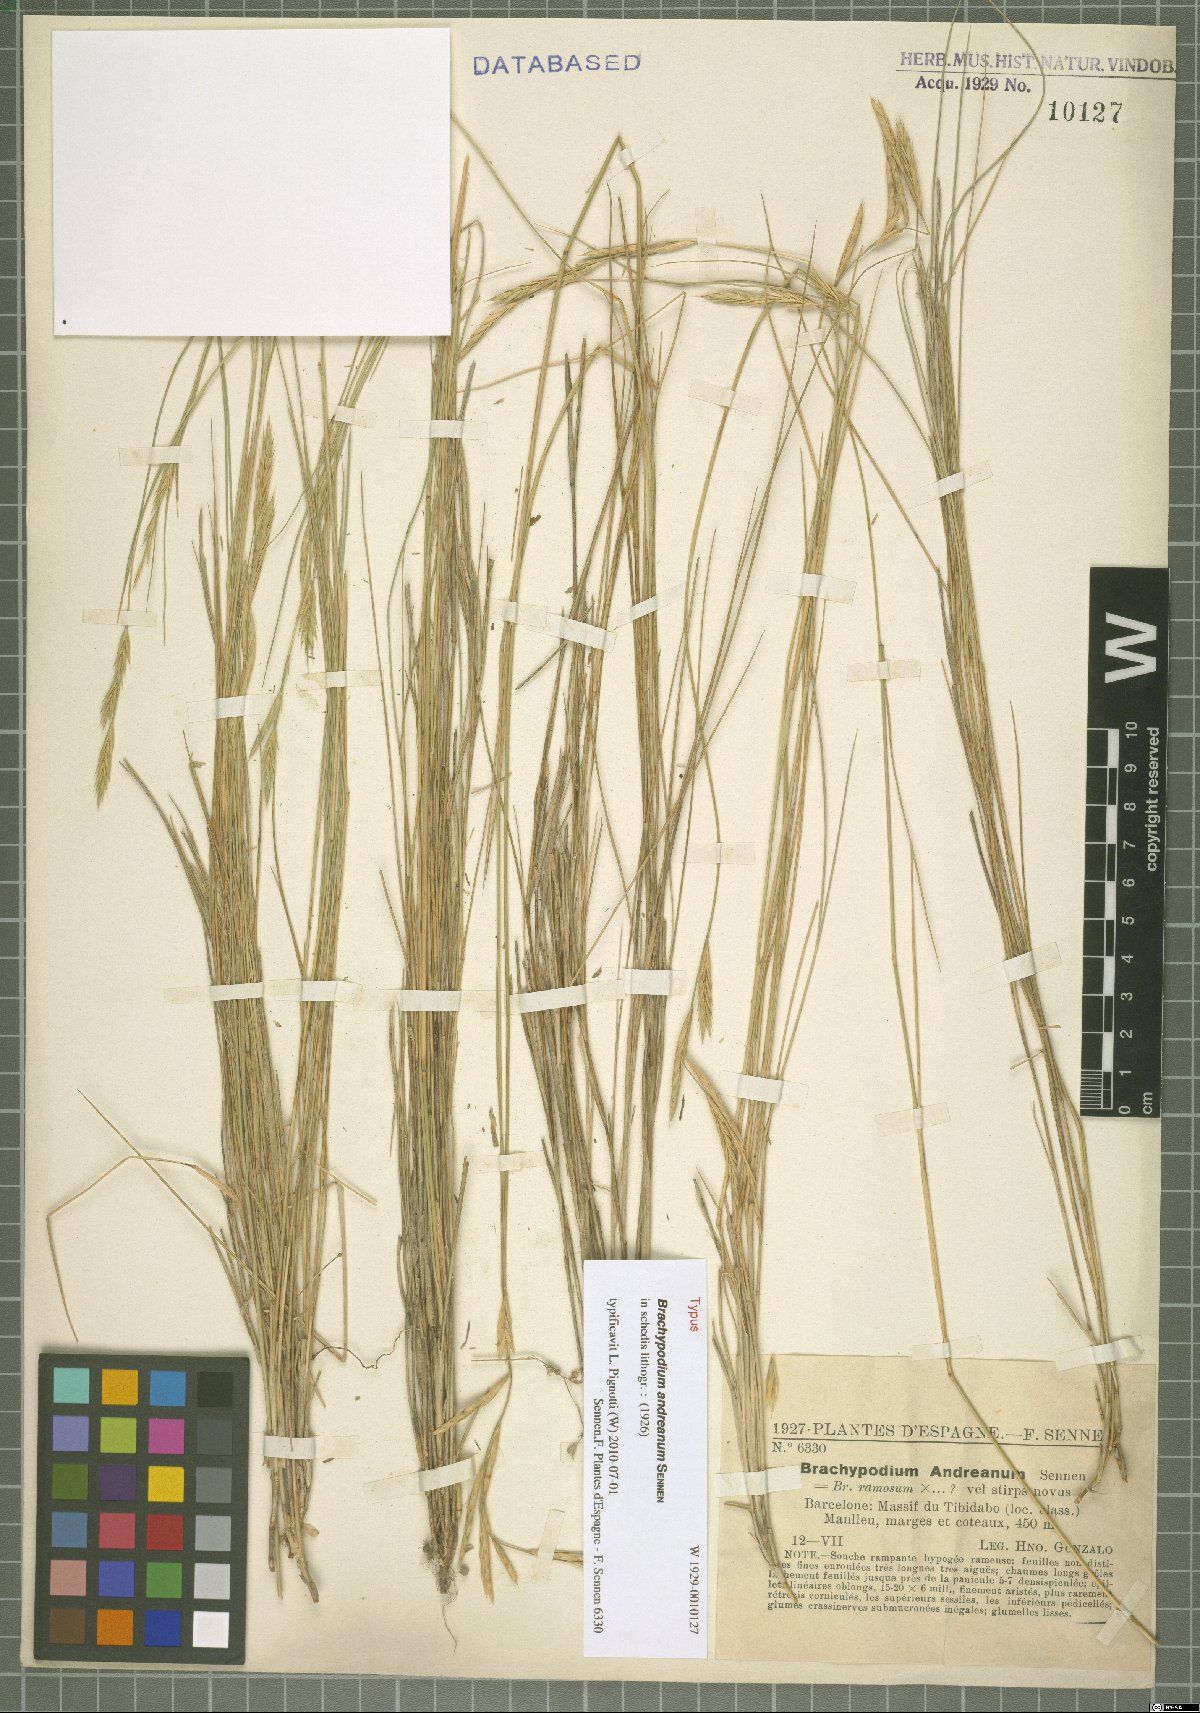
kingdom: Plantae
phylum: Tracheophyta
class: Liliopsida
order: Poales
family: Poaceae
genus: Brachypodium
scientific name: Brachypodium andreanum
